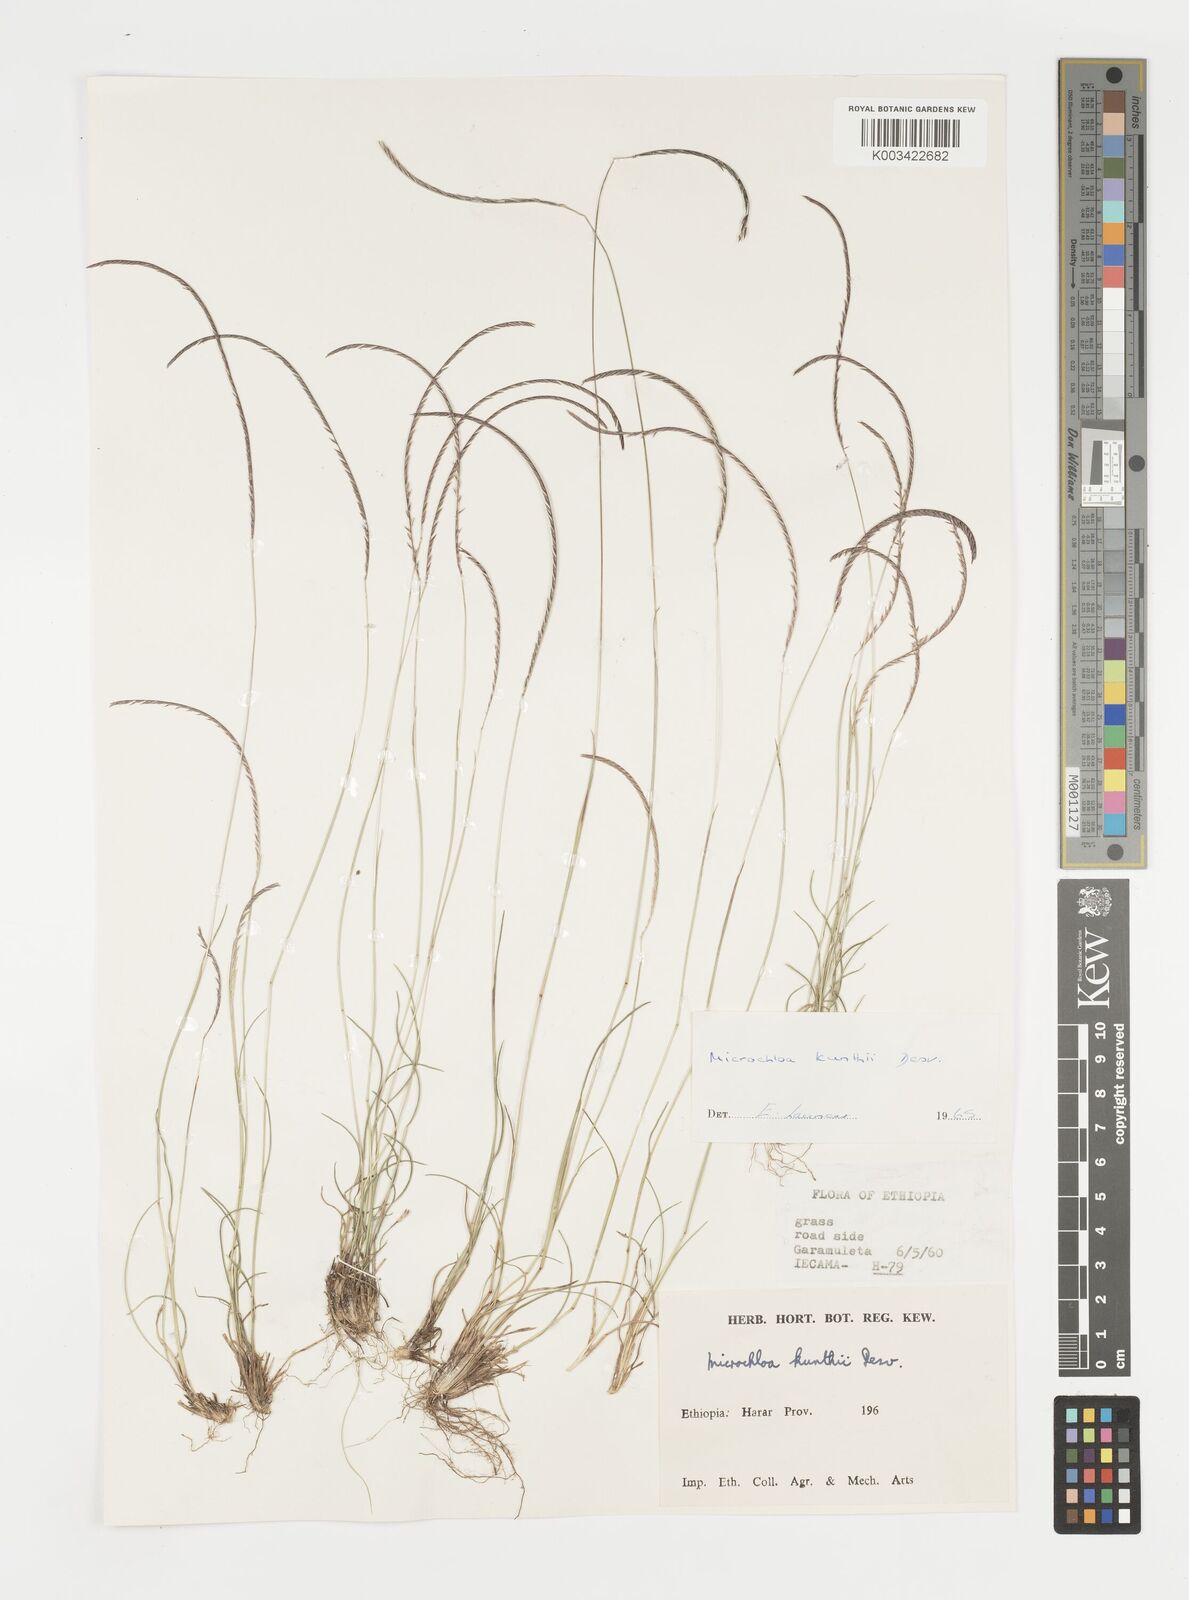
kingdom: Plantae
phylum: Tracheophyta
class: Liliopsida
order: Poales
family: Poaceae
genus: Microchloa
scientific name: Microchloa kunthii
